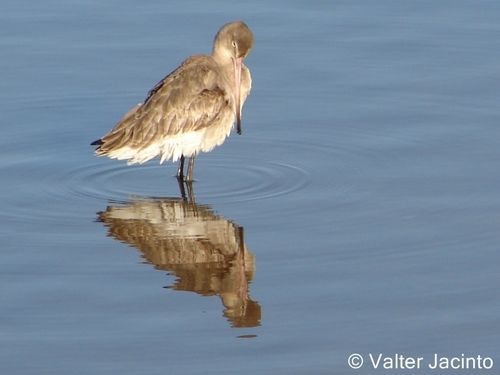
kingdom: Animalia
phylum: Chordata
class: Aves
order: Charadriiformes
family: Scolopacidae
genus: Limosa
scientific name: Limosa limosa
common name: Black-tailed godwit
